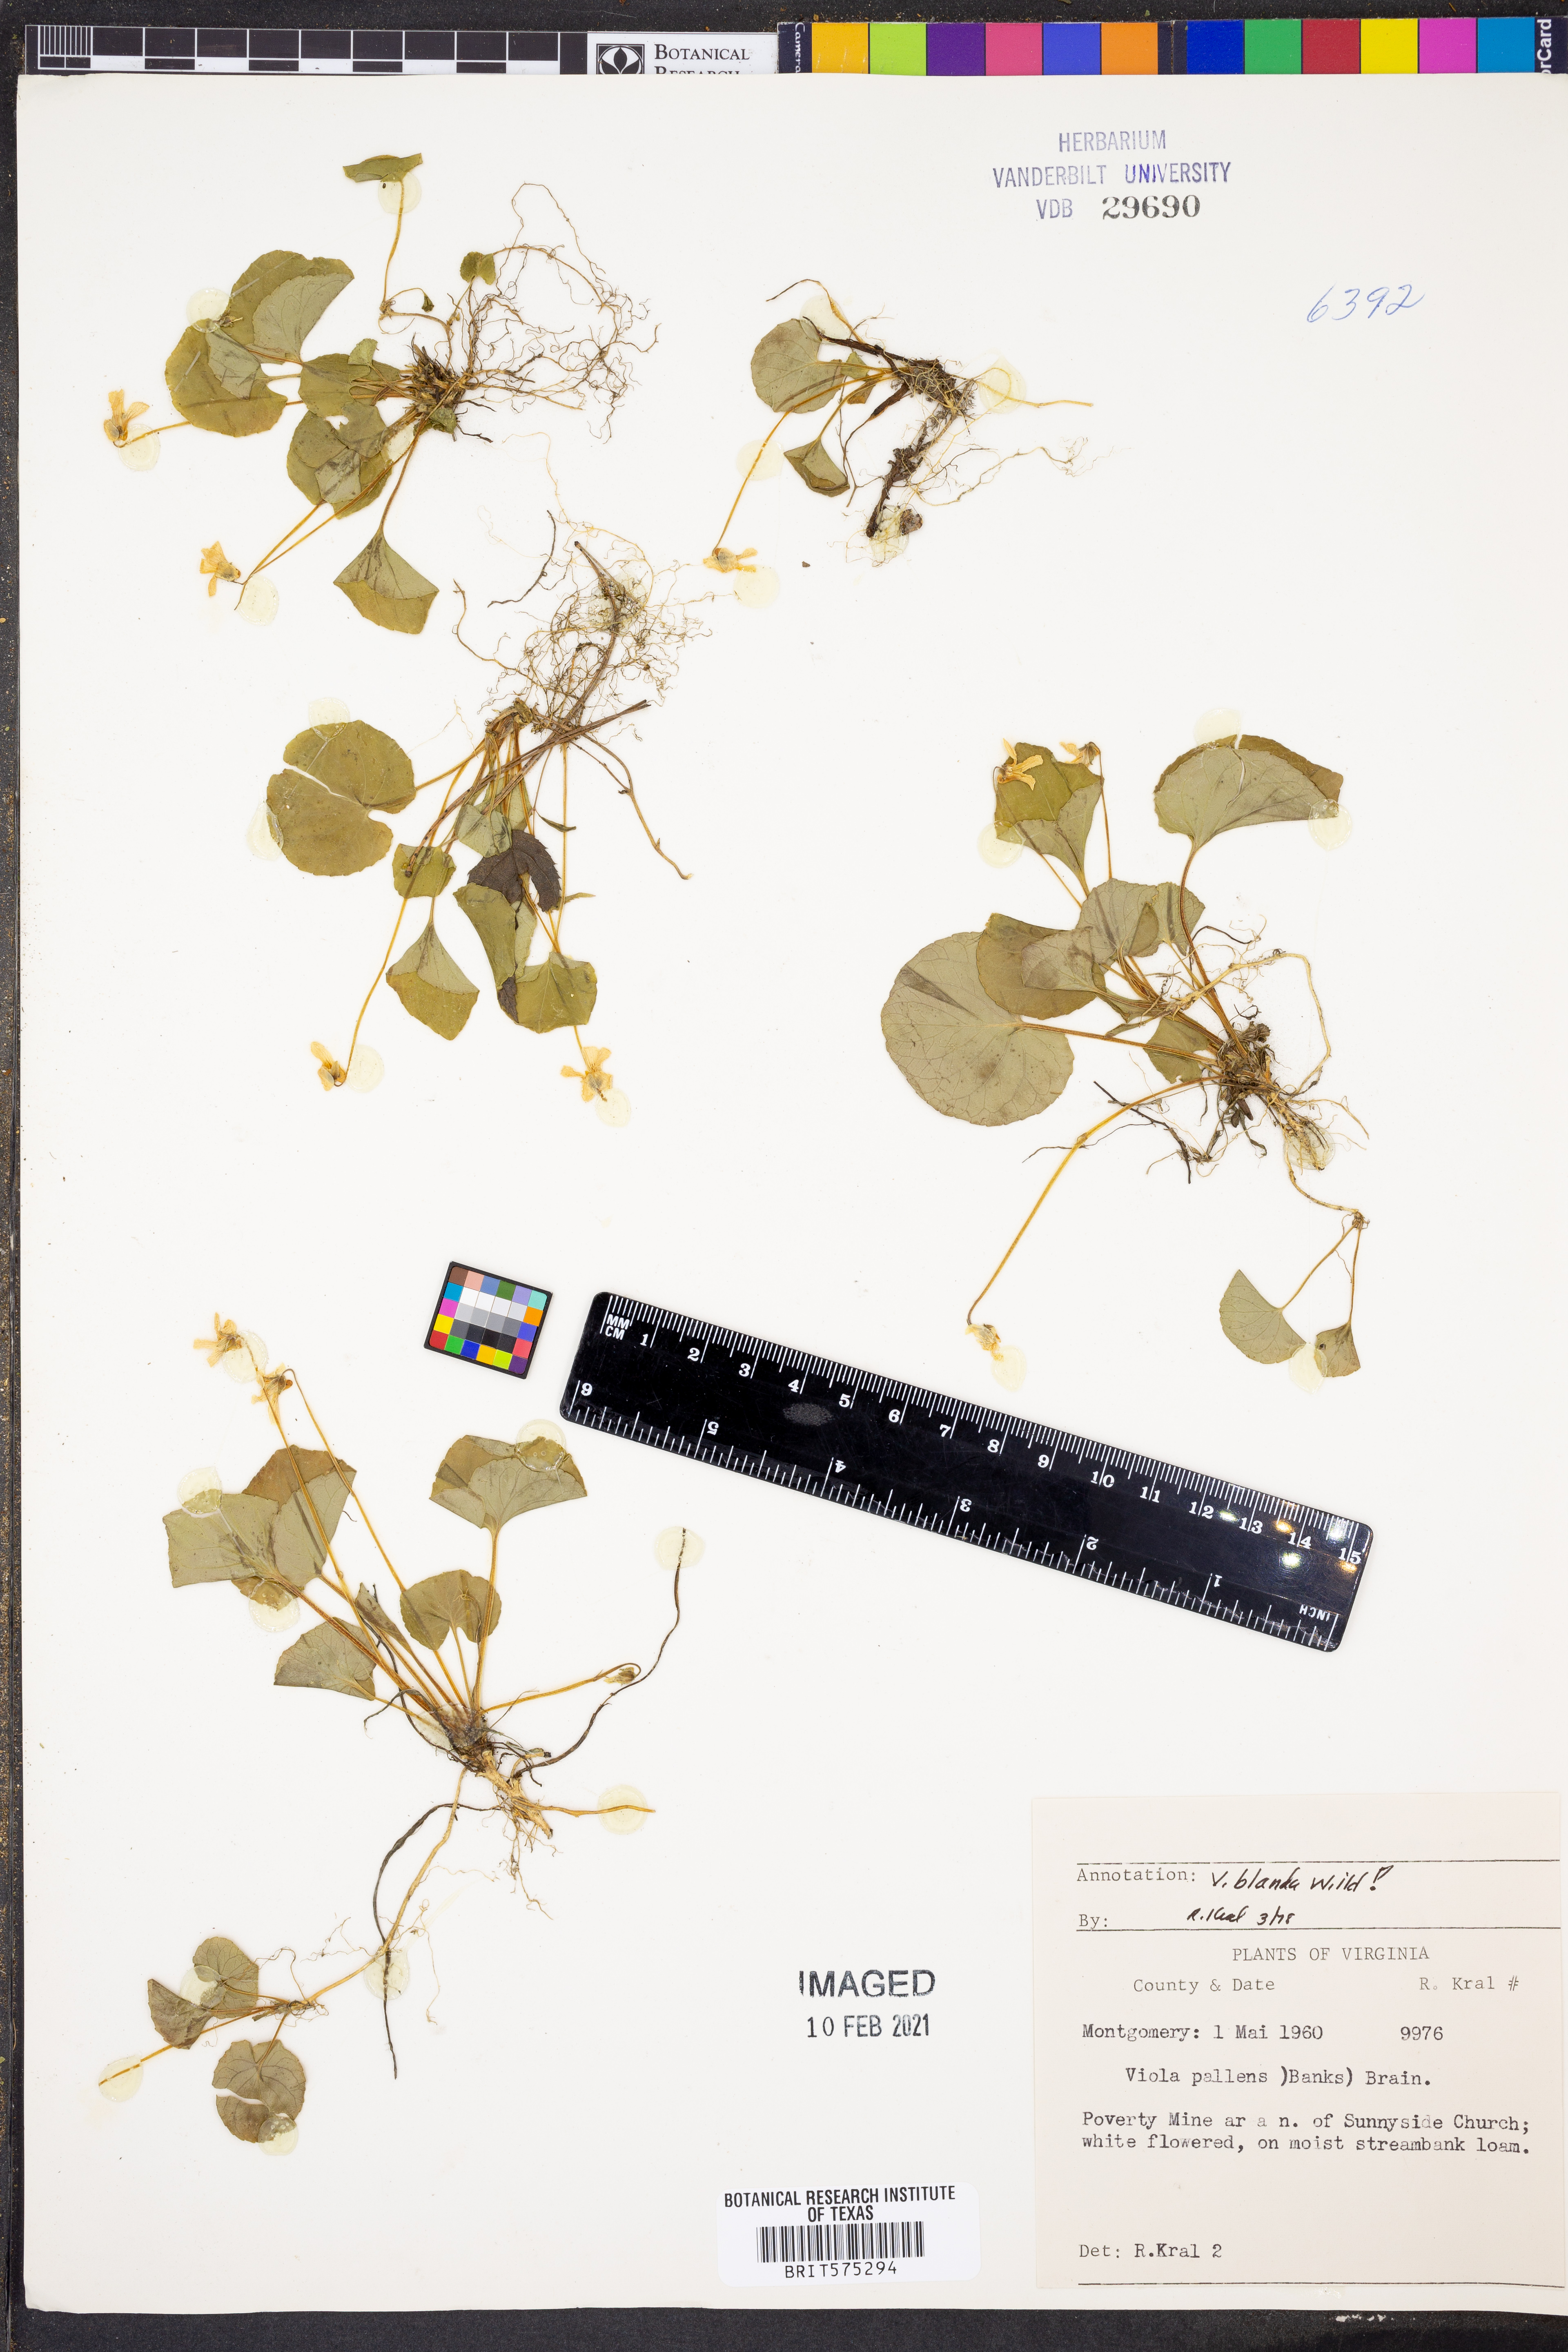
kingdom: Plantae
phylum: Tracheophyta
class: Magnoliopsida
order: Malpighiales
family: Violaceae
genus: Viola
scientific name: Viola blanda
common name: Sweet white violet
